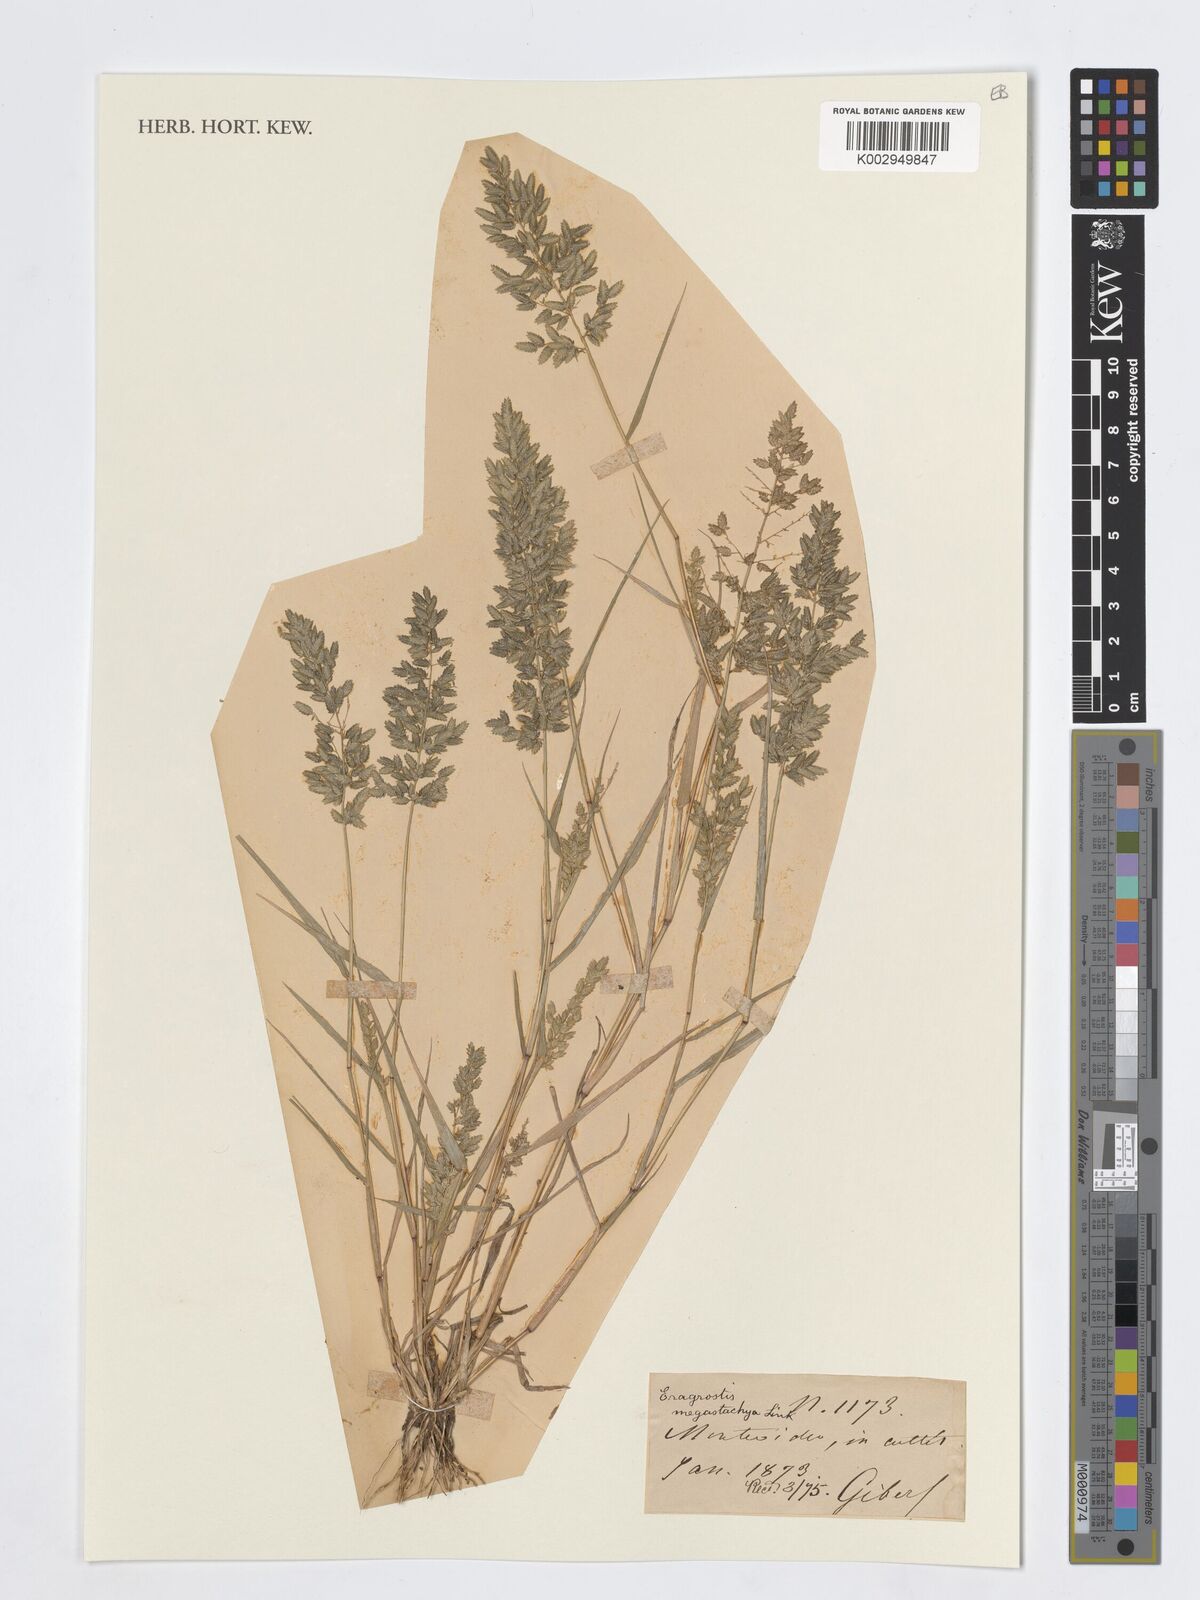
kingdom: Plantae
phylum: Tracheophyta
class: Liliopsida
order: Poales
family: Poaceae
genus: Eragrostis
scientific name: Eragrostis cilianensis
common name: Stinkgrass
